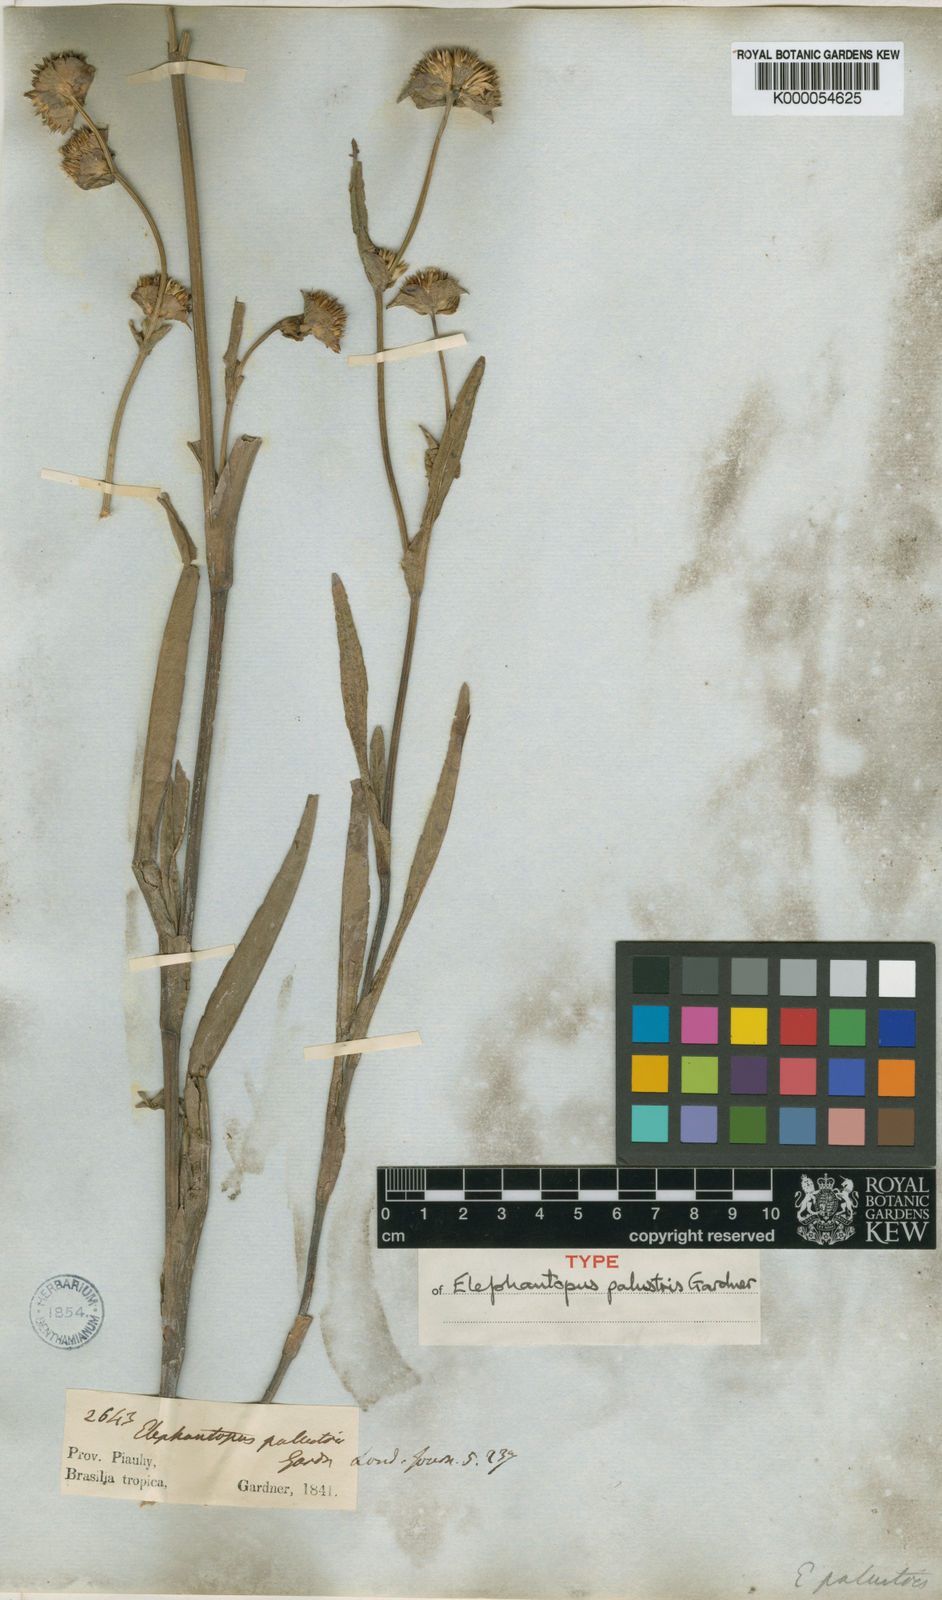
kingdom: Plantae
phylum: Tracheophyta
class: Magnoliopsida
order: Asterales
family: Asteraceae
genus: Elephantopus
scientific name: Elephantopus palustris
